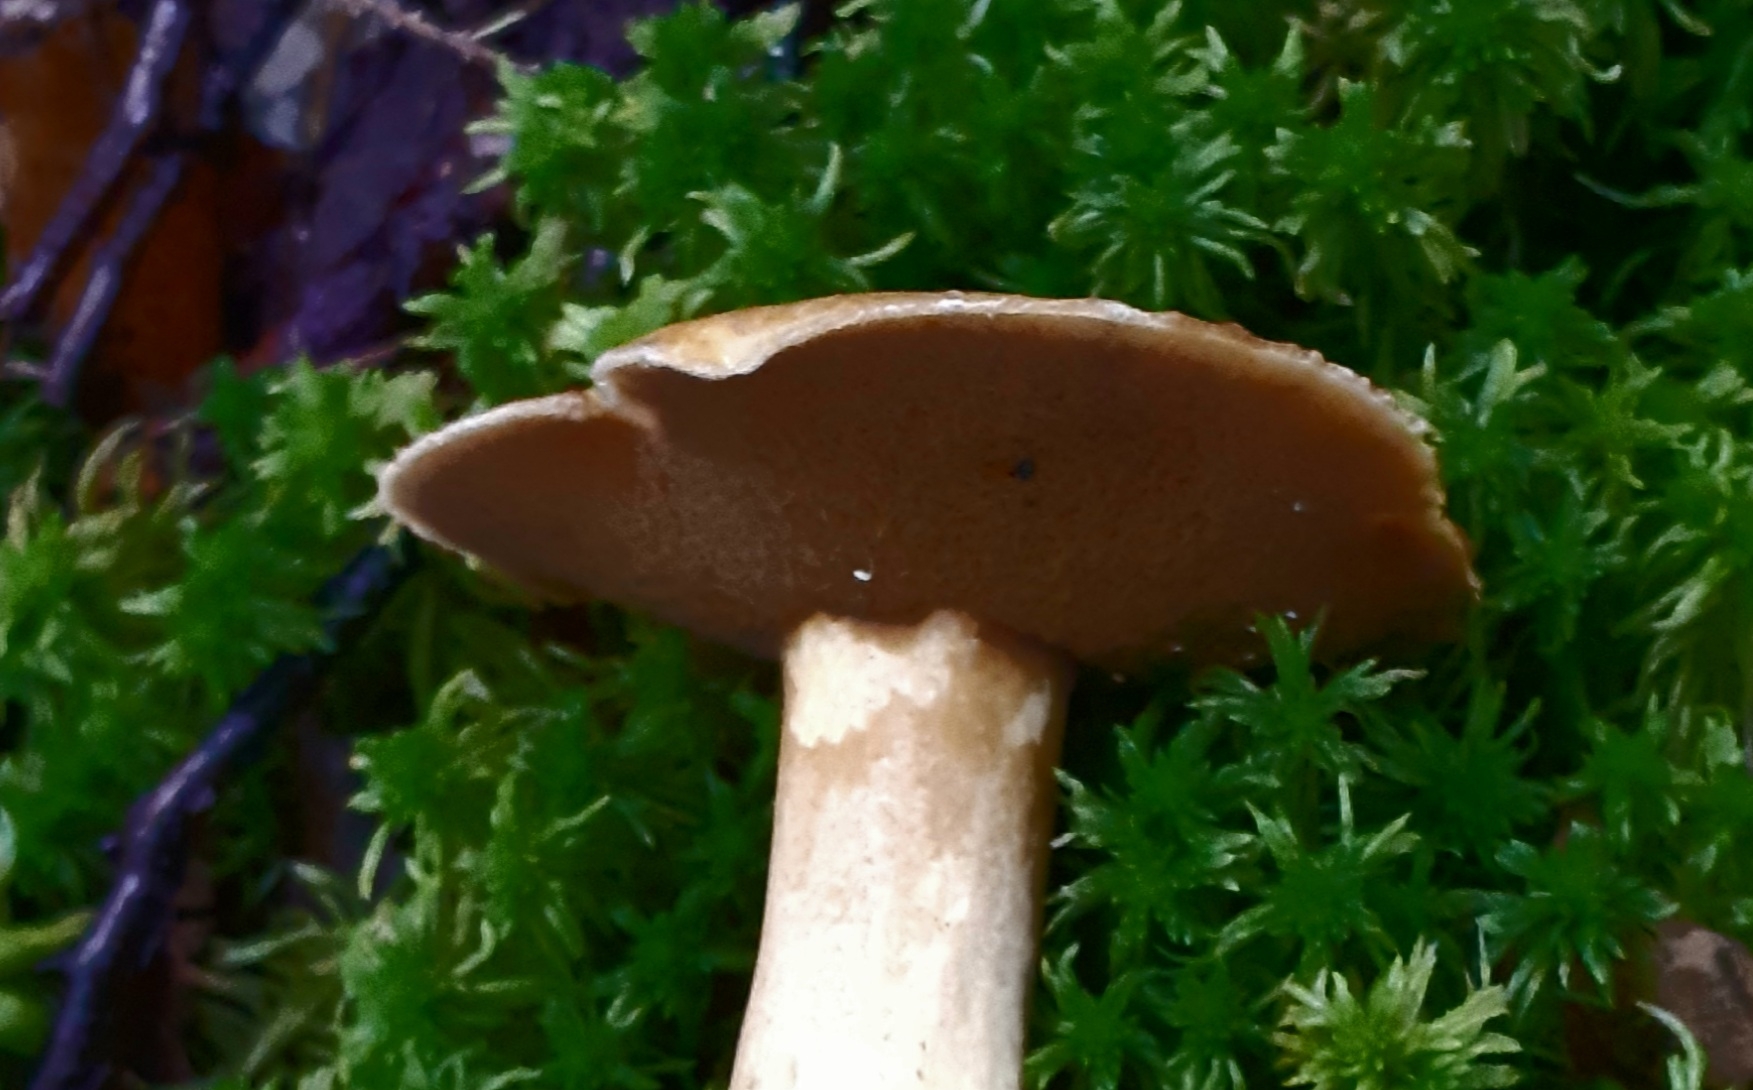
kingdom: Fungi
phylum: Basidiomycota
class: Agaricomycetes
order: Boletales
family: Suillaceae
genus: Suillus
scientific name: Suillus variegatus
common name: broget slimrørhat
